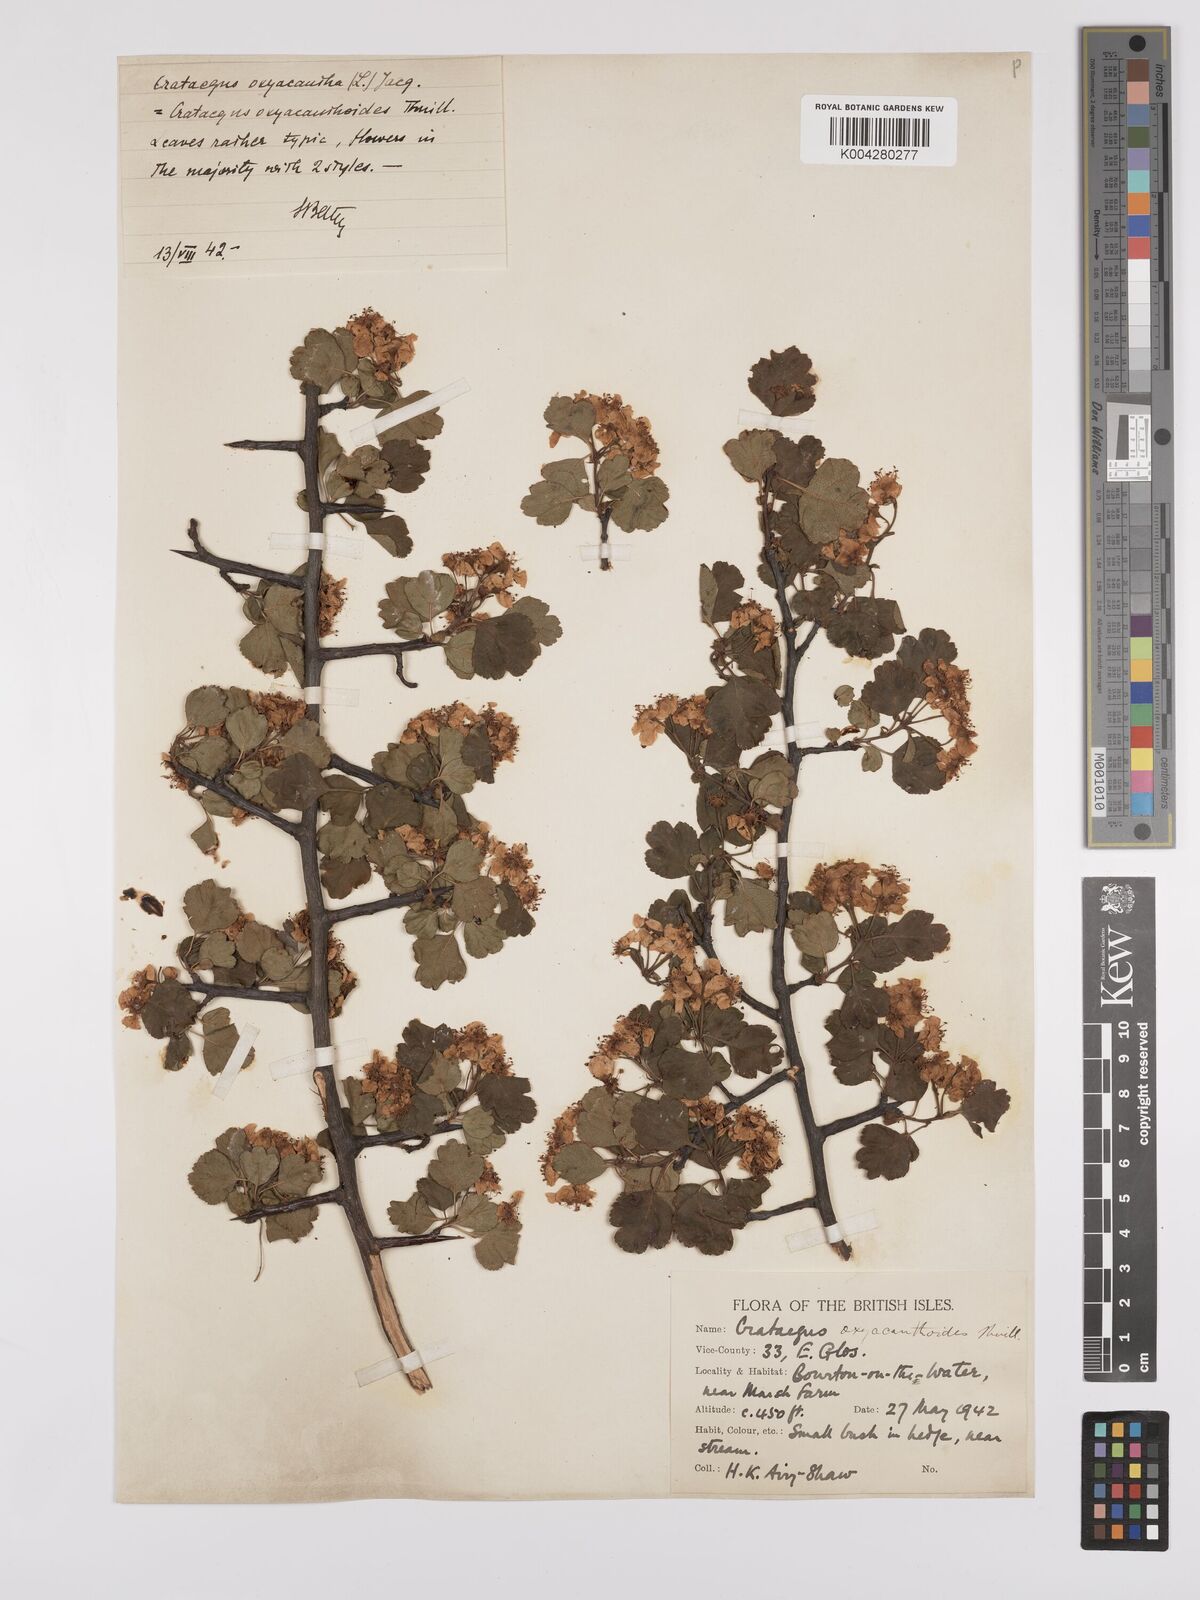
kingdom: Plantae
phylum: Tracheophyta
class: Magnoliopsida
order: Rosales
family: Rosaceae
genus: Crataegus
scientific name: Crataegus laevigata
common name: Midland hawthorn
